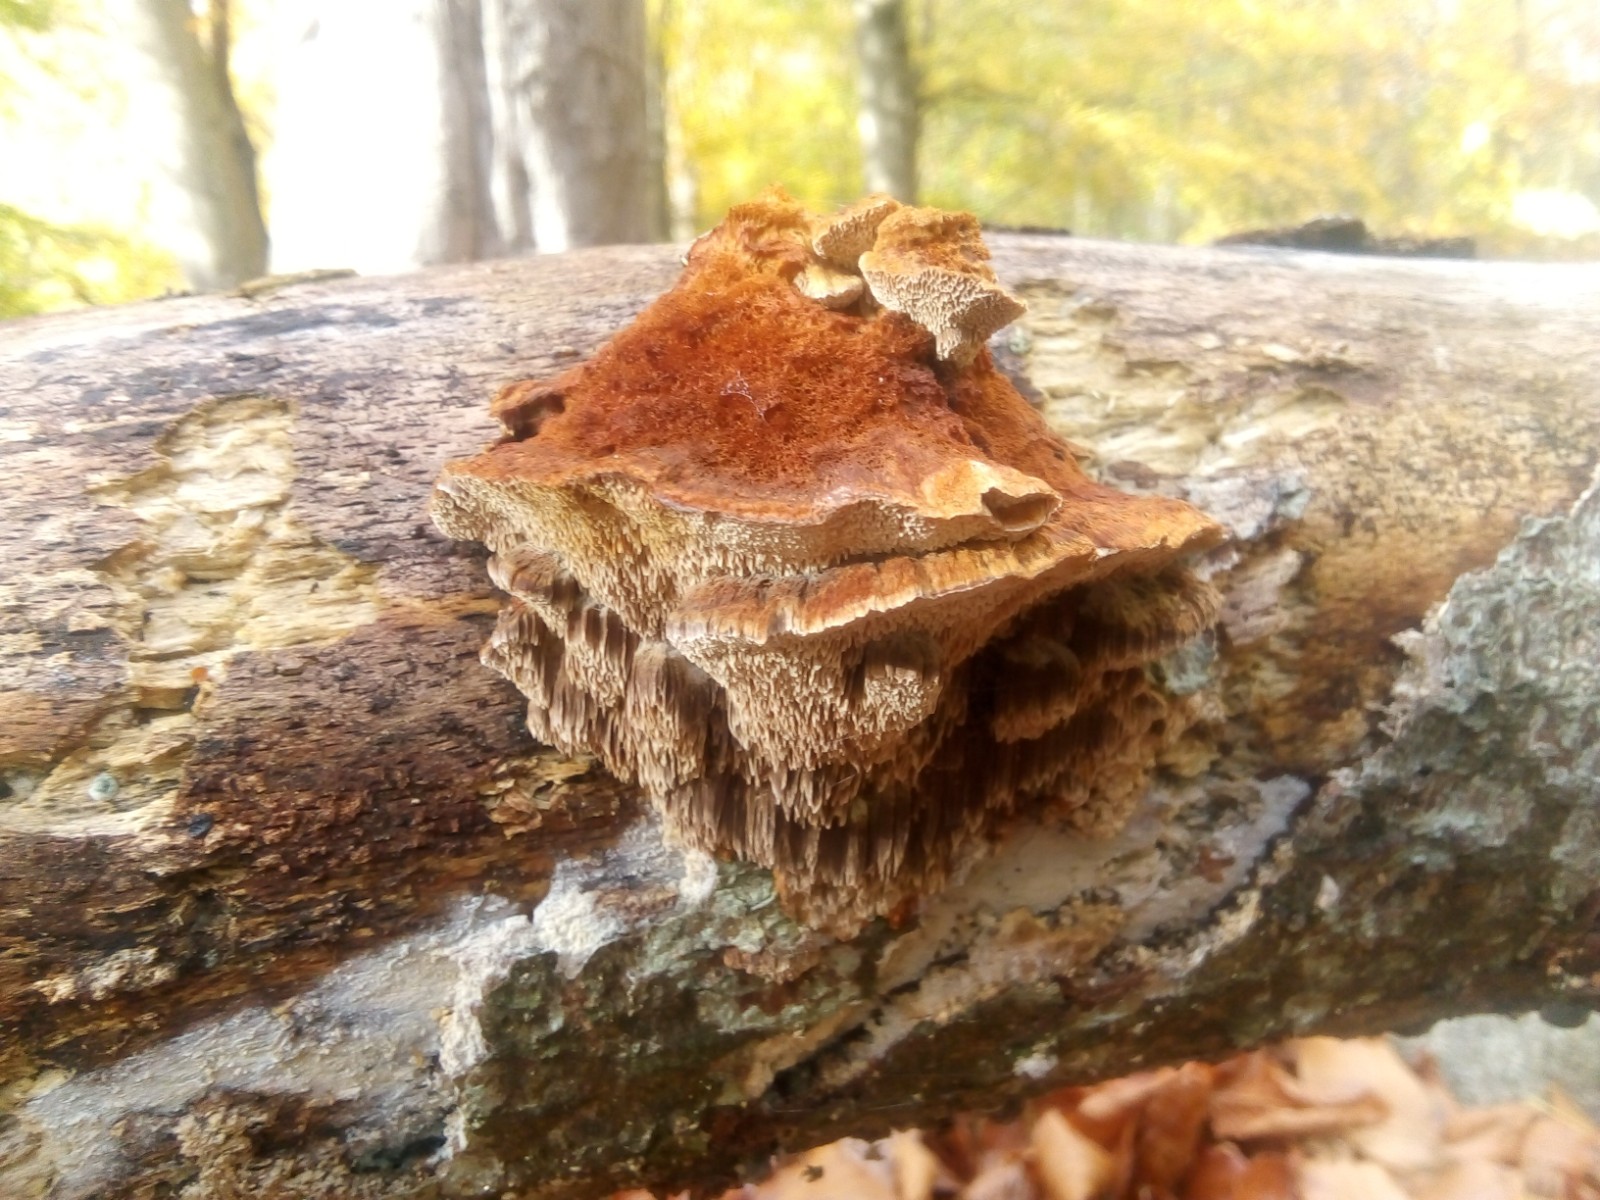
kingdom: Fungi
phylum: Basidiomycota
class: Agaricomycetes
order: Hymenochaetales
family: Hymenochaetaceae
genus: Mensularia
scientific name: Mensularia nodulosa
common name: bøge-spejlporesvamp
